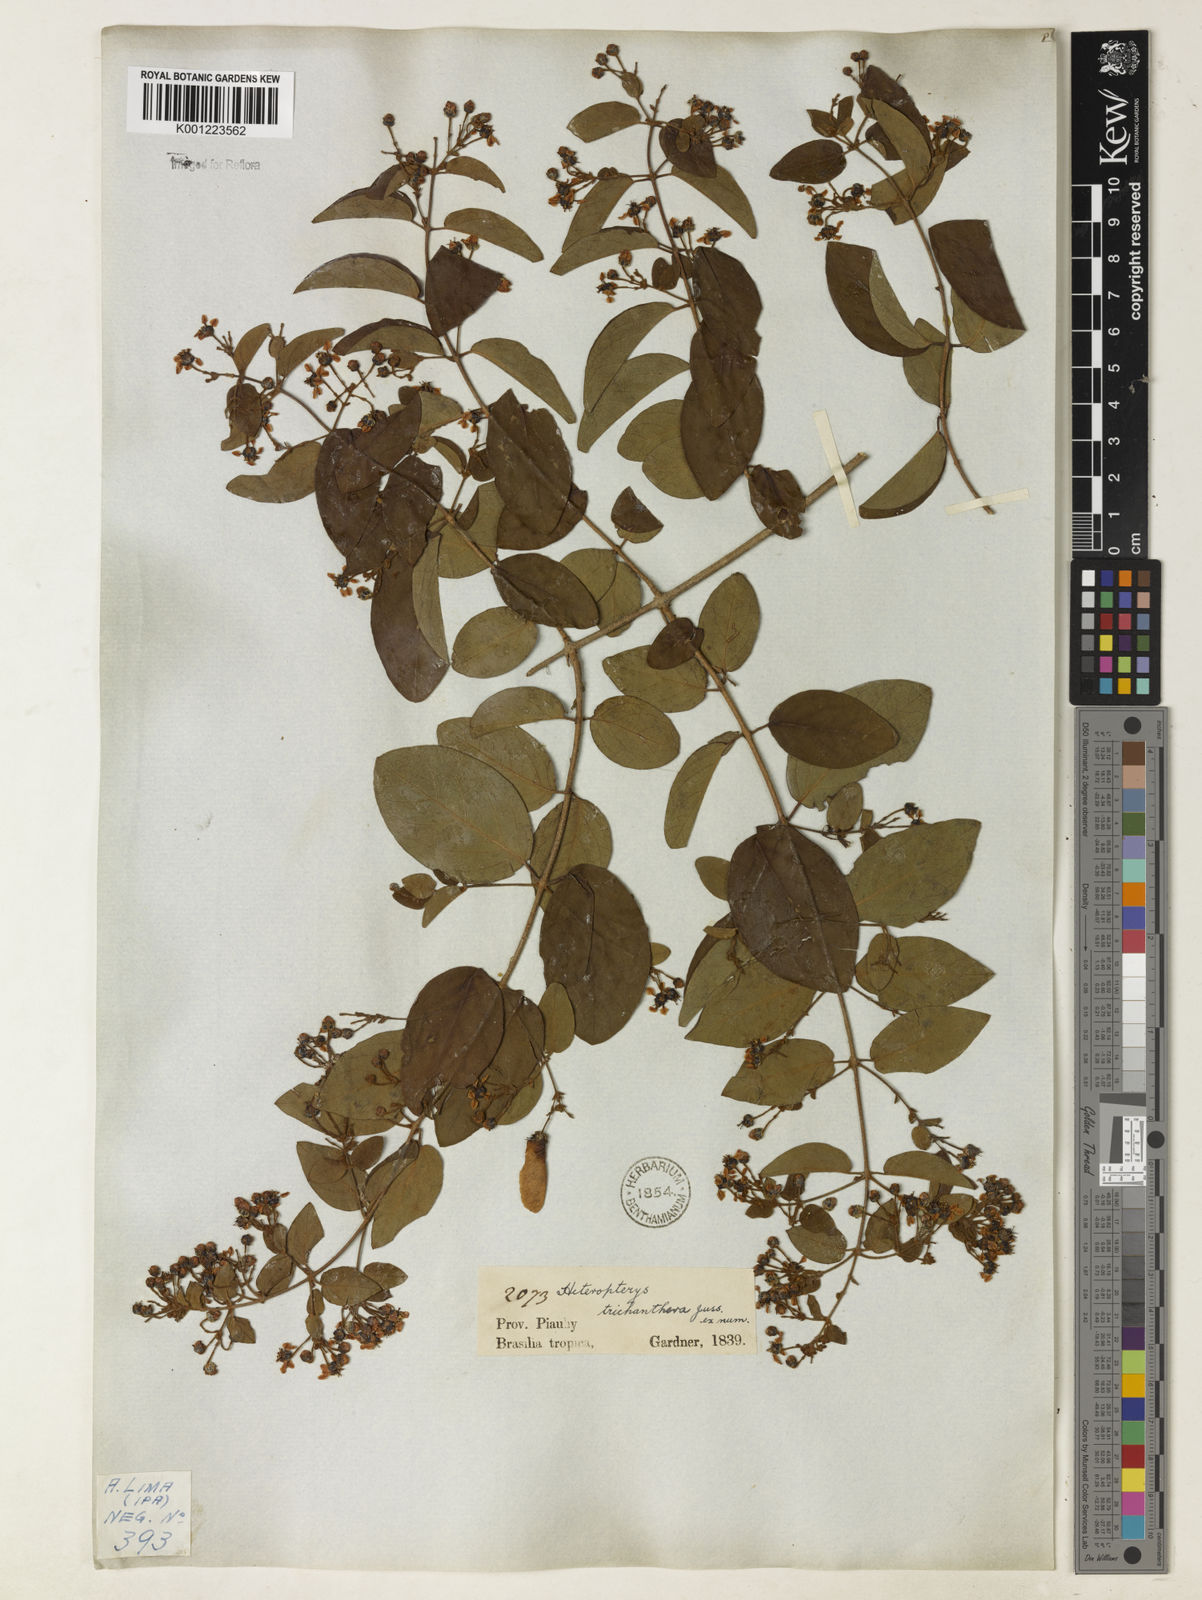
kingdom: Plantae
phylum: Tracheophyta
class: Magnoliopsida
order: Malpighiales
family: Malpighiaceae
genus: Heteropterys
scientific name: Heteropterys trichanthera
